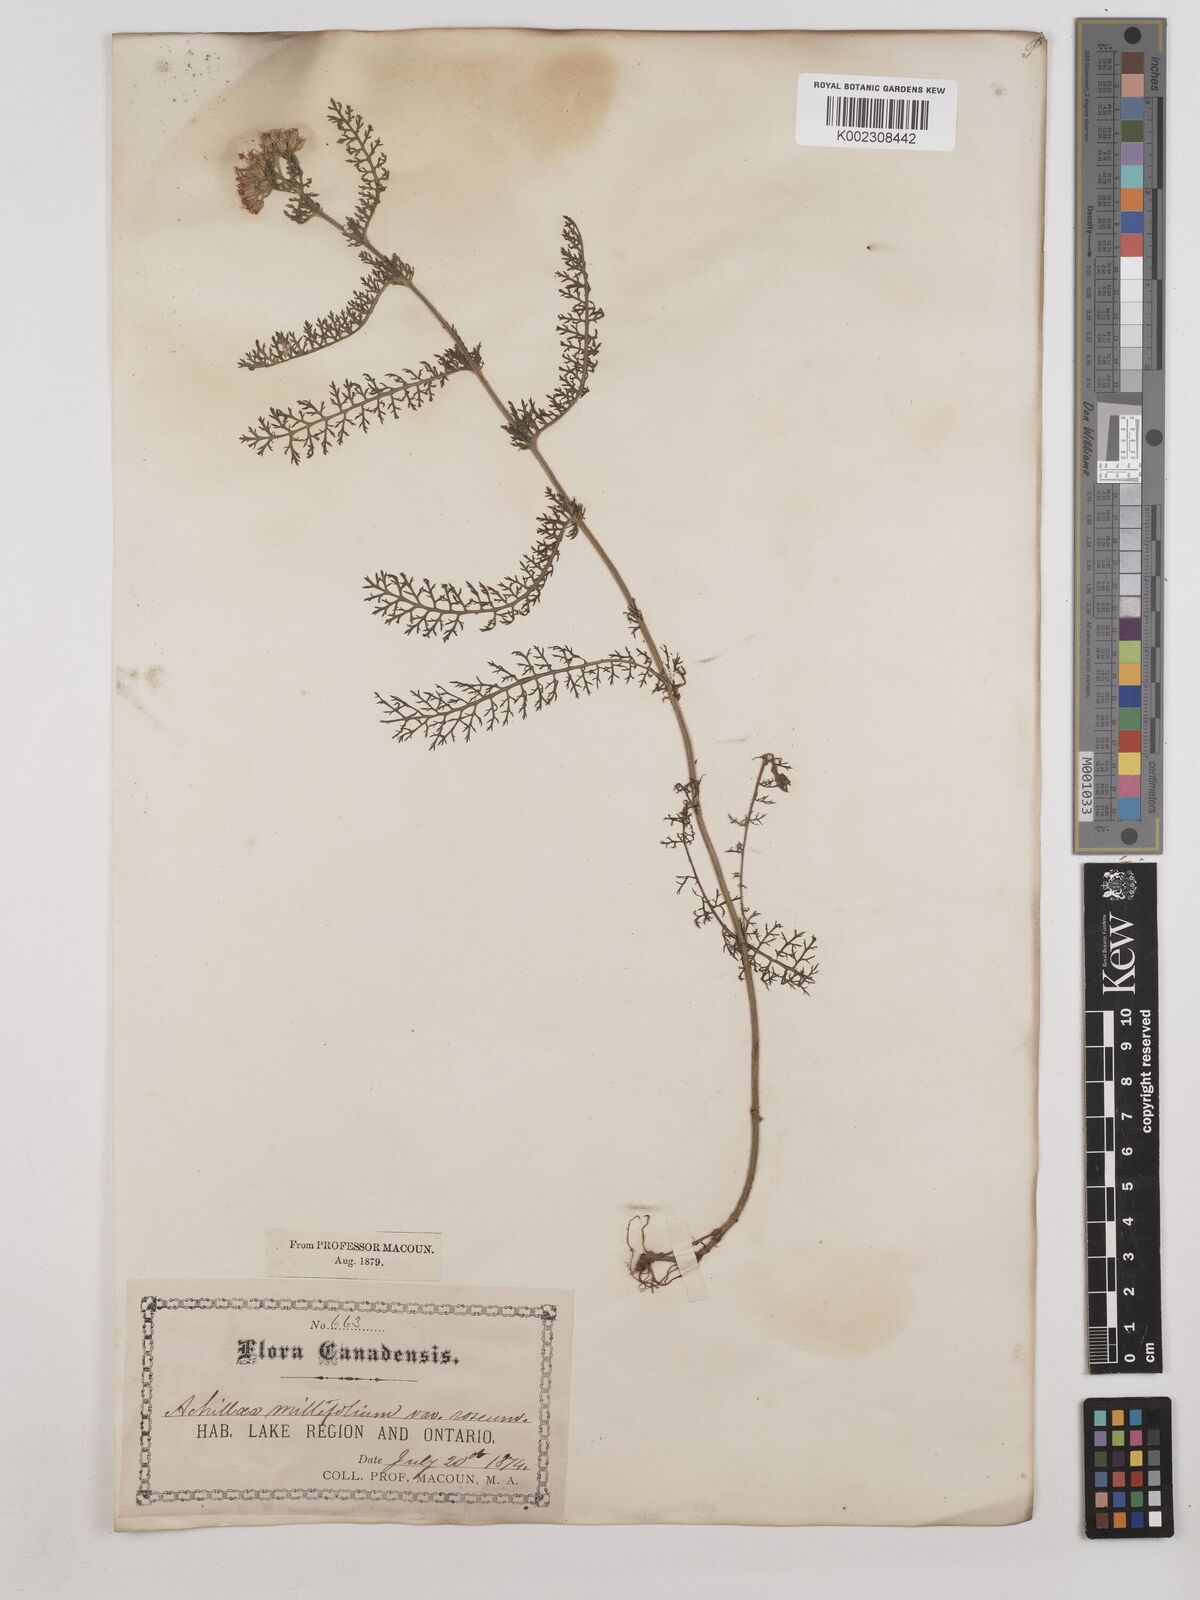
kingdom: Plantae
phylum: Tracheophyta
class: Magnoliopsida
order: Asterales
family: Asteraceae
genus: Achillea
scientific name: Achillea millefolium
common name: Yarrow
